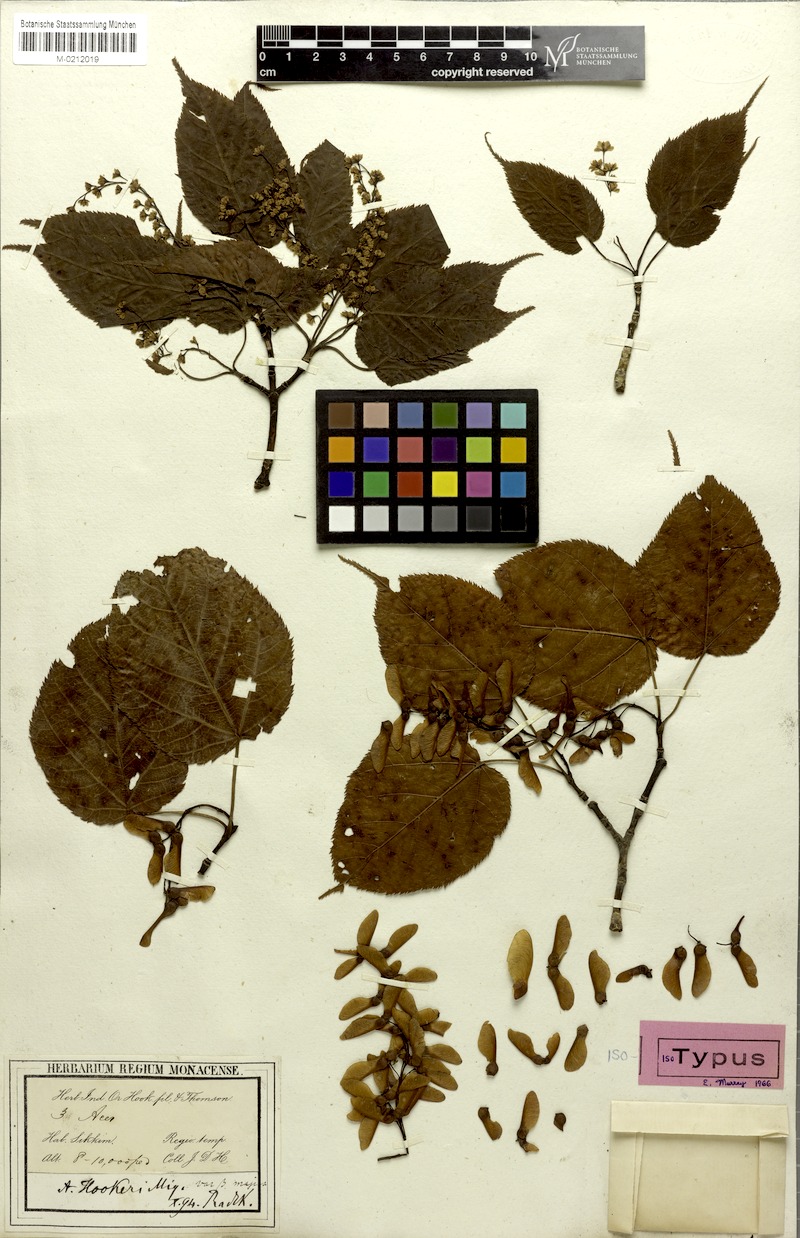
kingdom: Plantae
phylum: Tracheophyta
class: Magnoliopsida
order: Sapindales
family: Sapindaceae
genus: Acer
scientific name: Acer sikkimense
